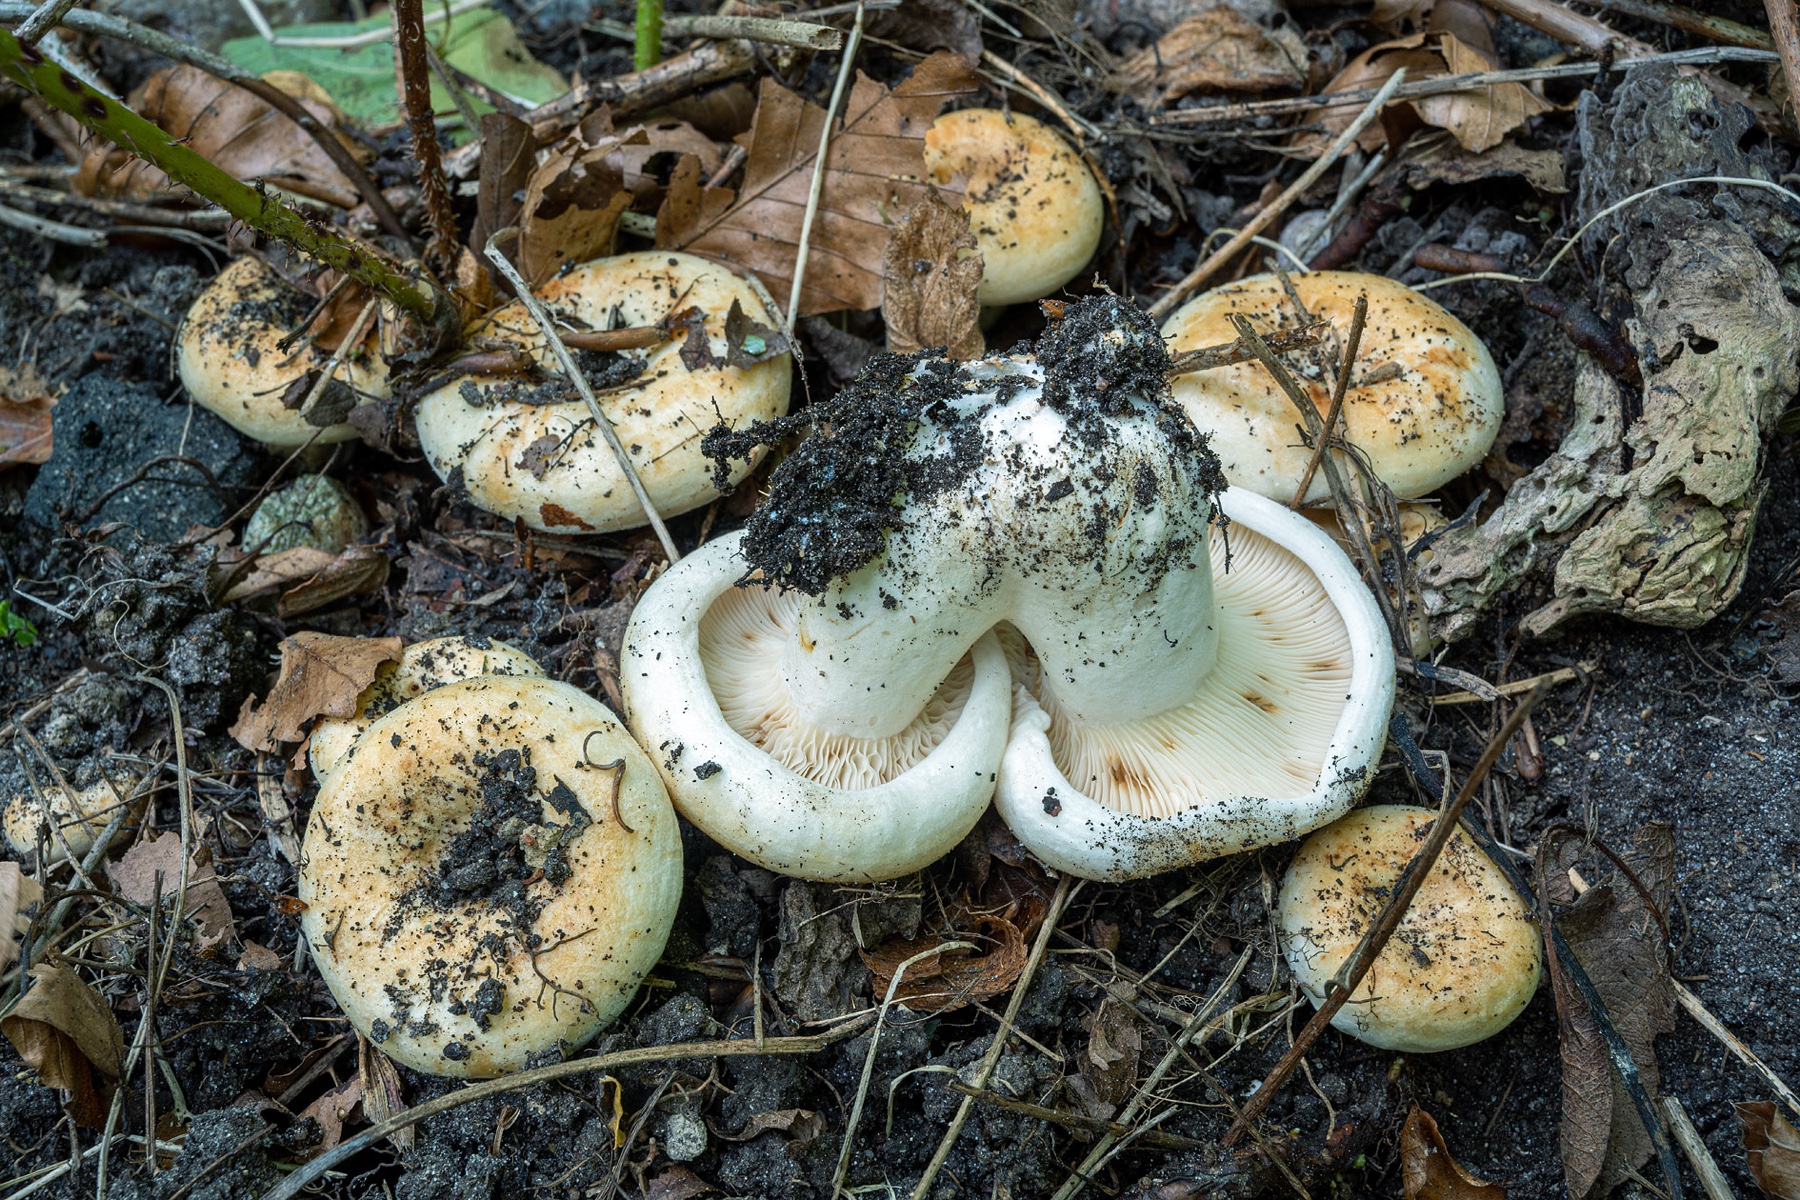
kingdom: Fungi
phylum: Basidiomycota
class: Agaricomycetes
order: Russulales
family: Russulaceae
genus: Lactarius
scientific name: Lactarius evosmus
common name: bæltet mælkehat
